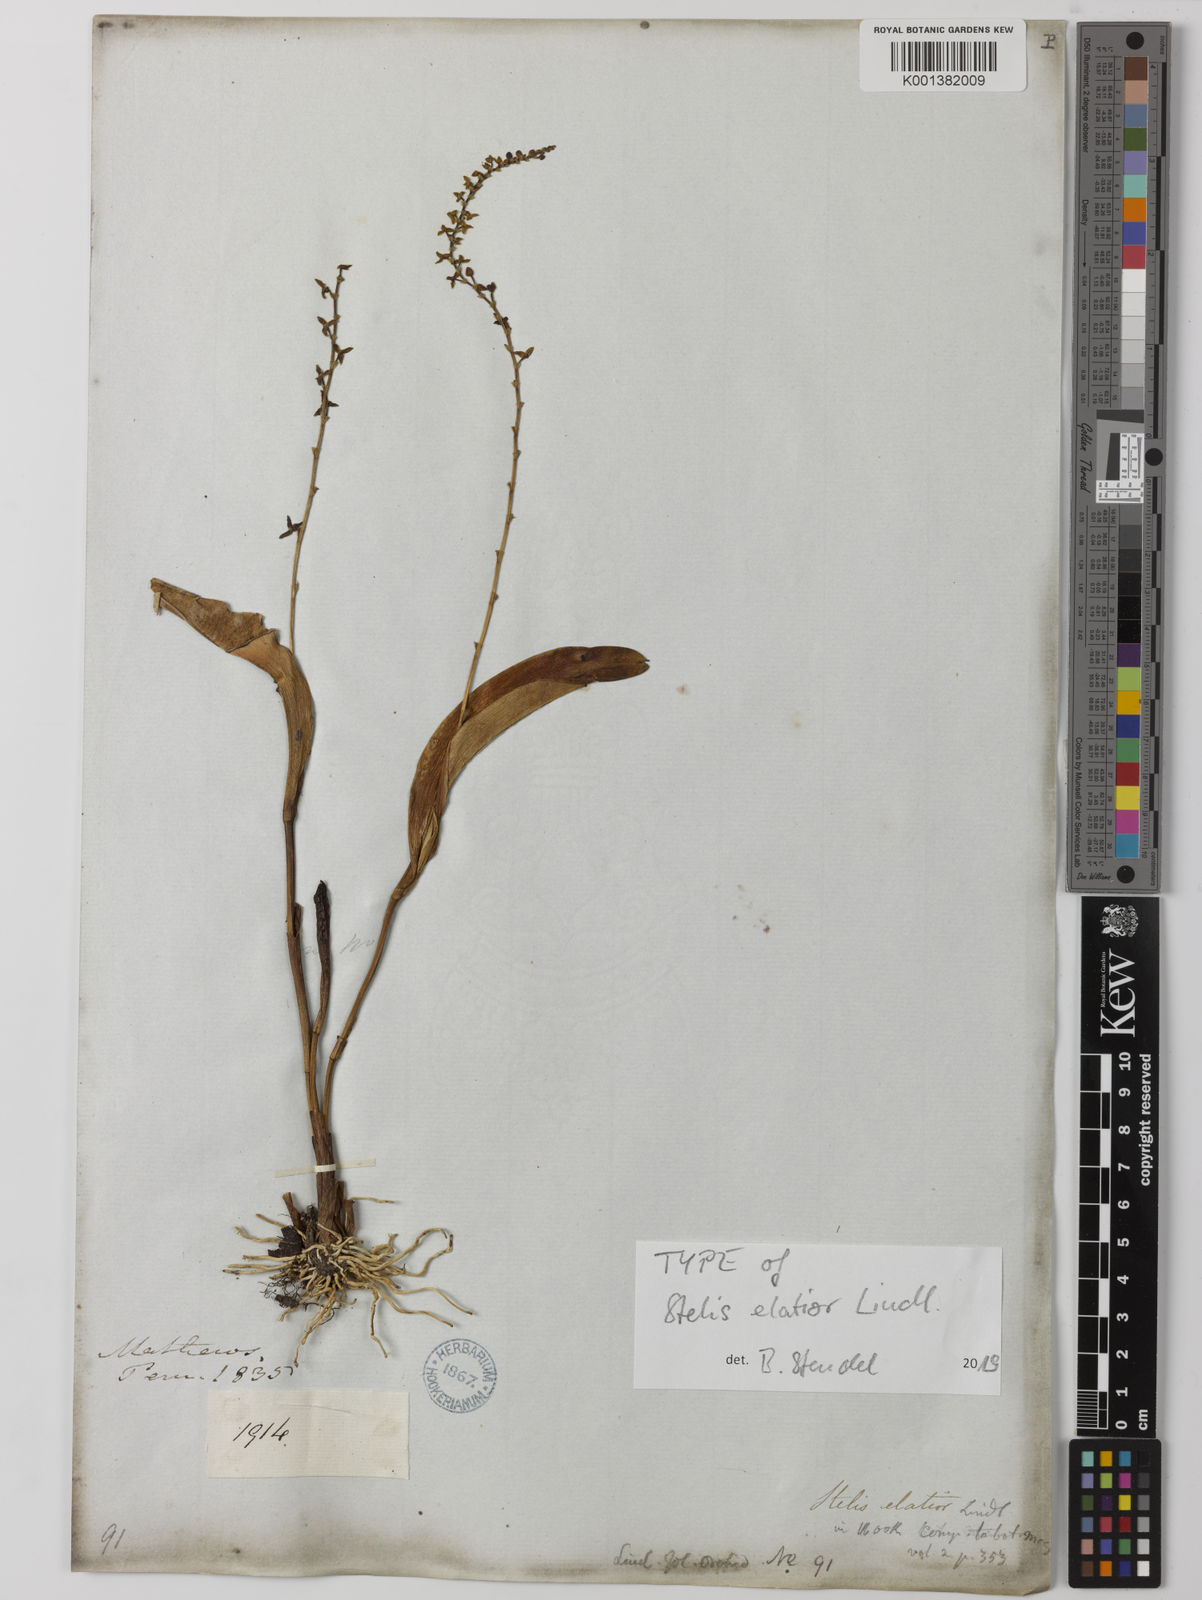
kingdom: Plantae
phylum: Tracheophyta
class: Liliopsida
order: Asparagales
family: Orchidaceae
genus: Stelis
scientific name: Stelis elatior
